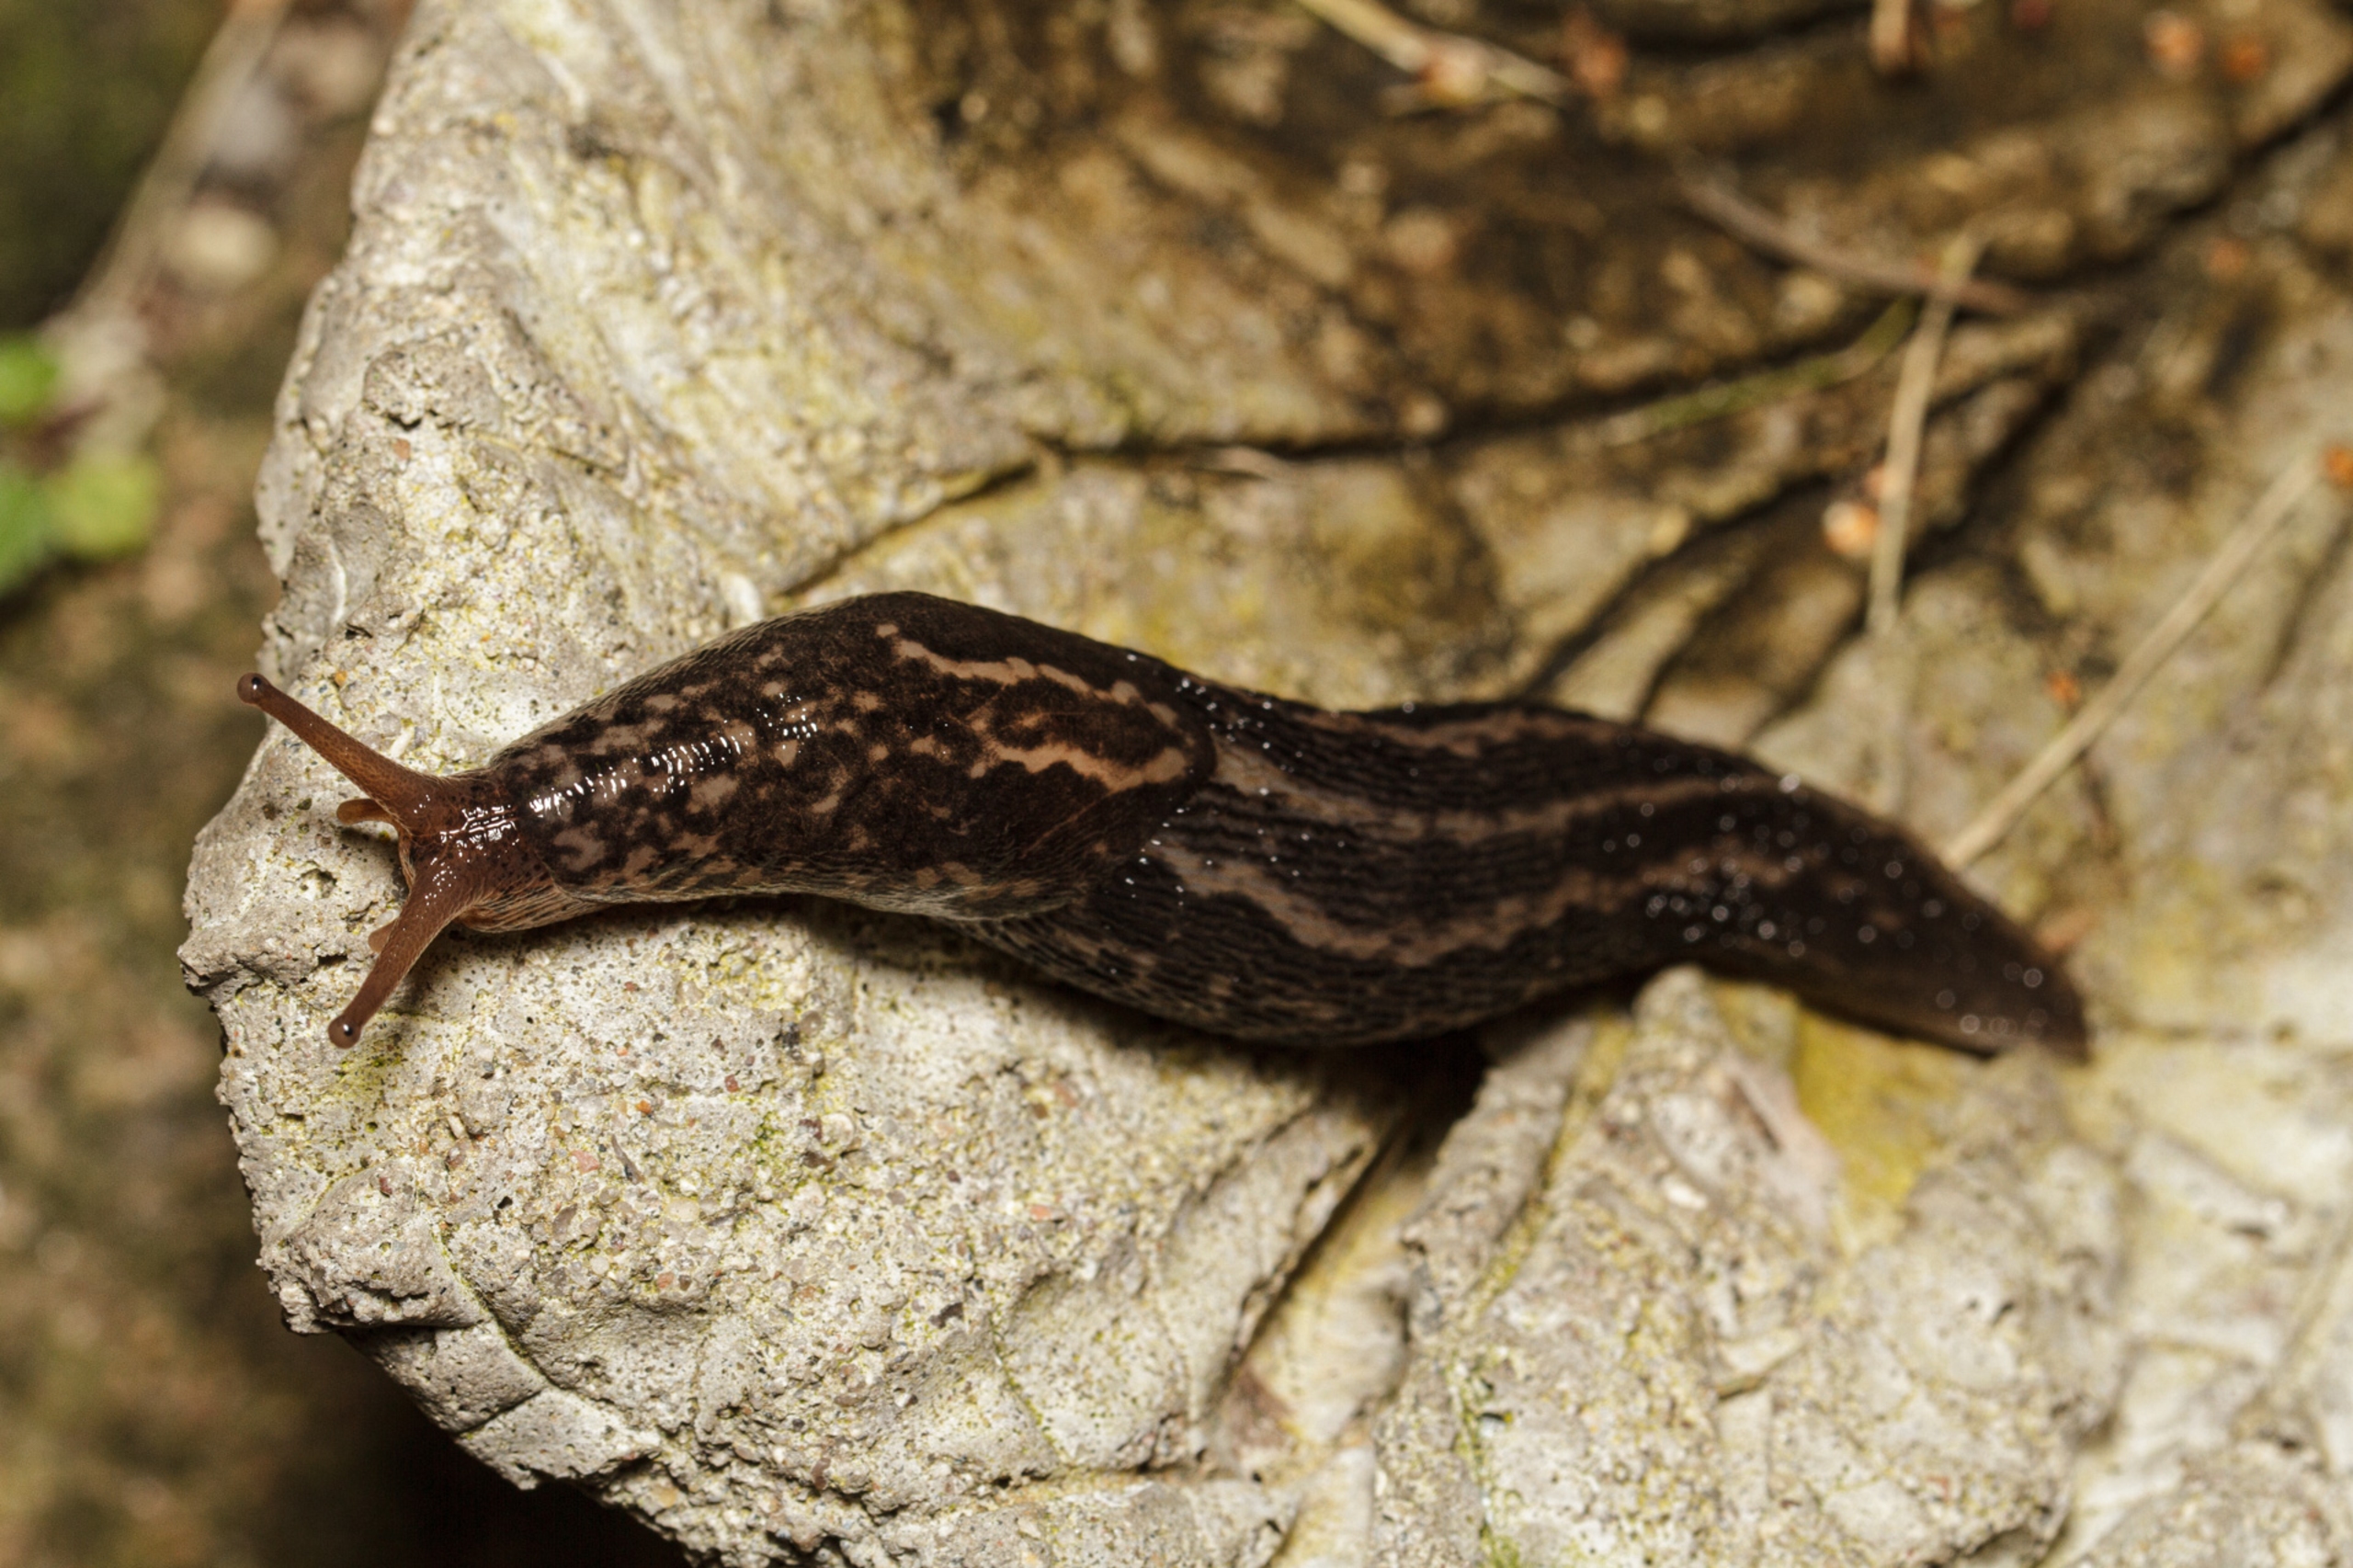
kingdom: Animalia
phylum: Mollusca
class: Gastropoda
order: Stylommatophora
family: Limacidae
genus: Limax
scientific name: Limax maximus
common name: Pantersnegl
